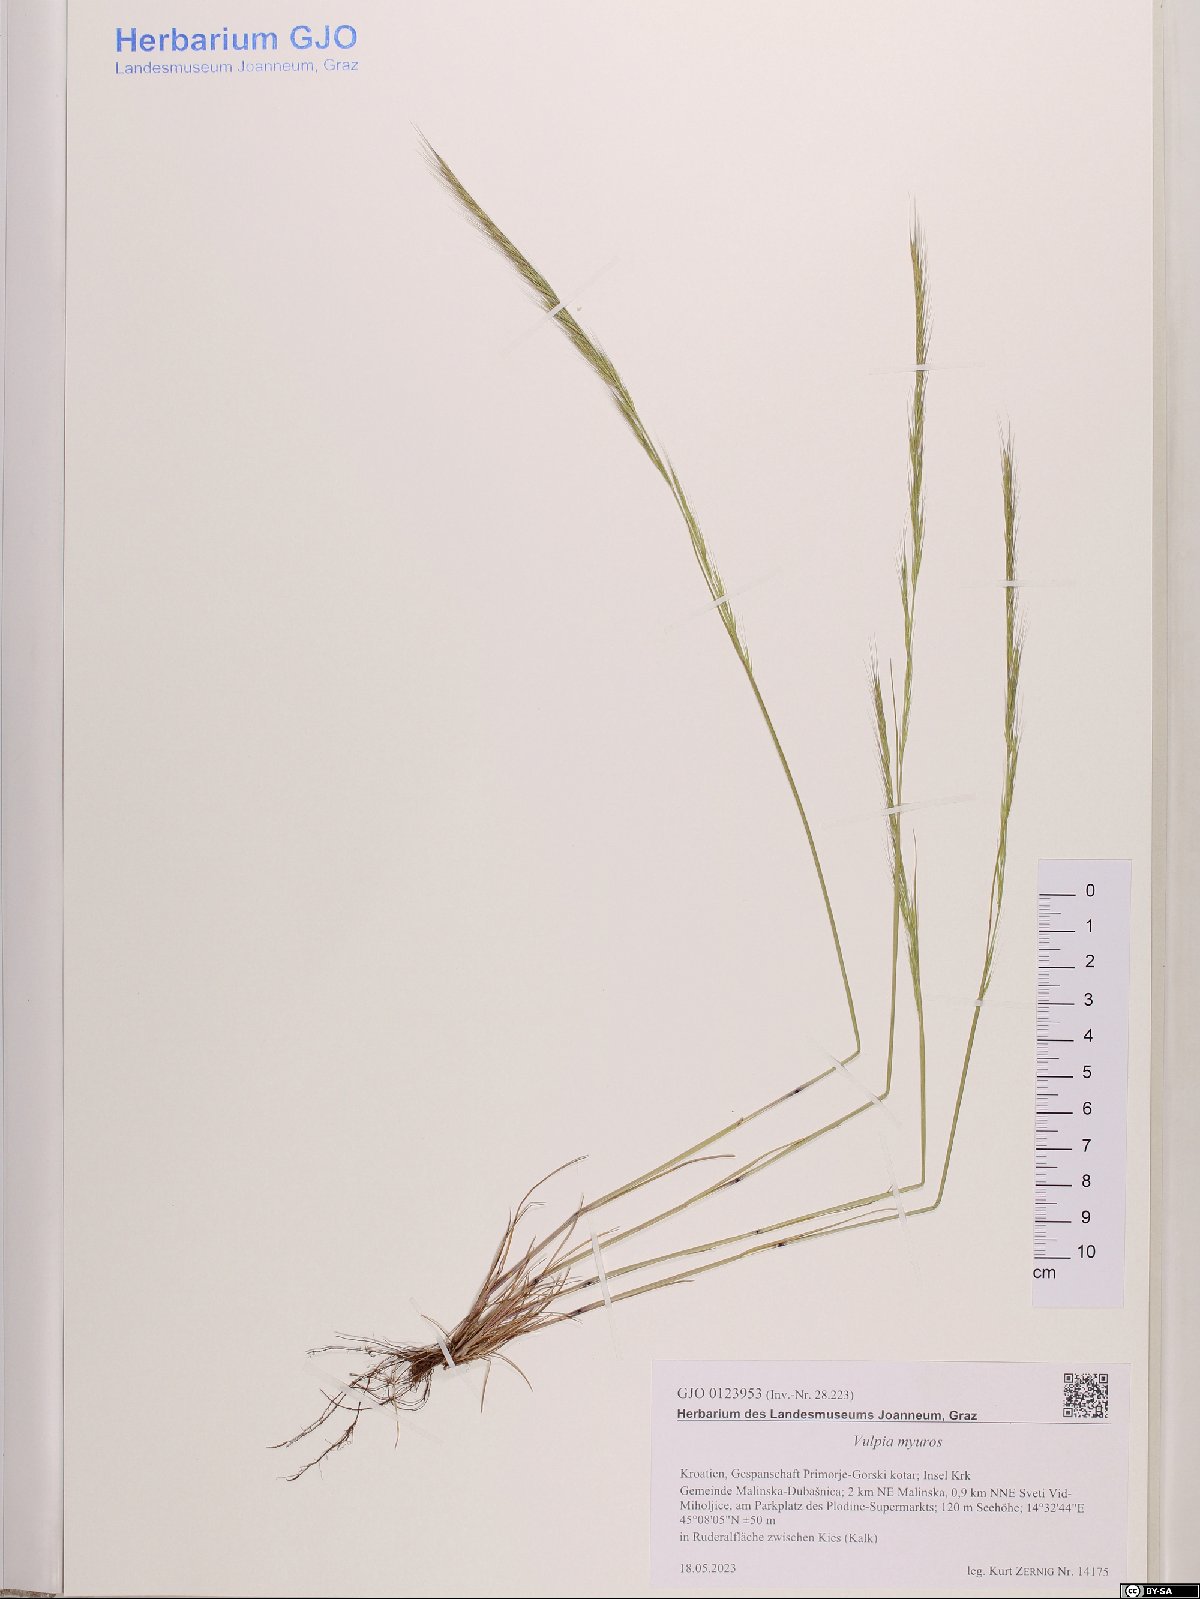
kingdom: Plantae
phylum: Tracheophyta
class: Liliopsida
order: Poales
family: Poaceae
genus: Festuca
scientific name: Festuca myuros
